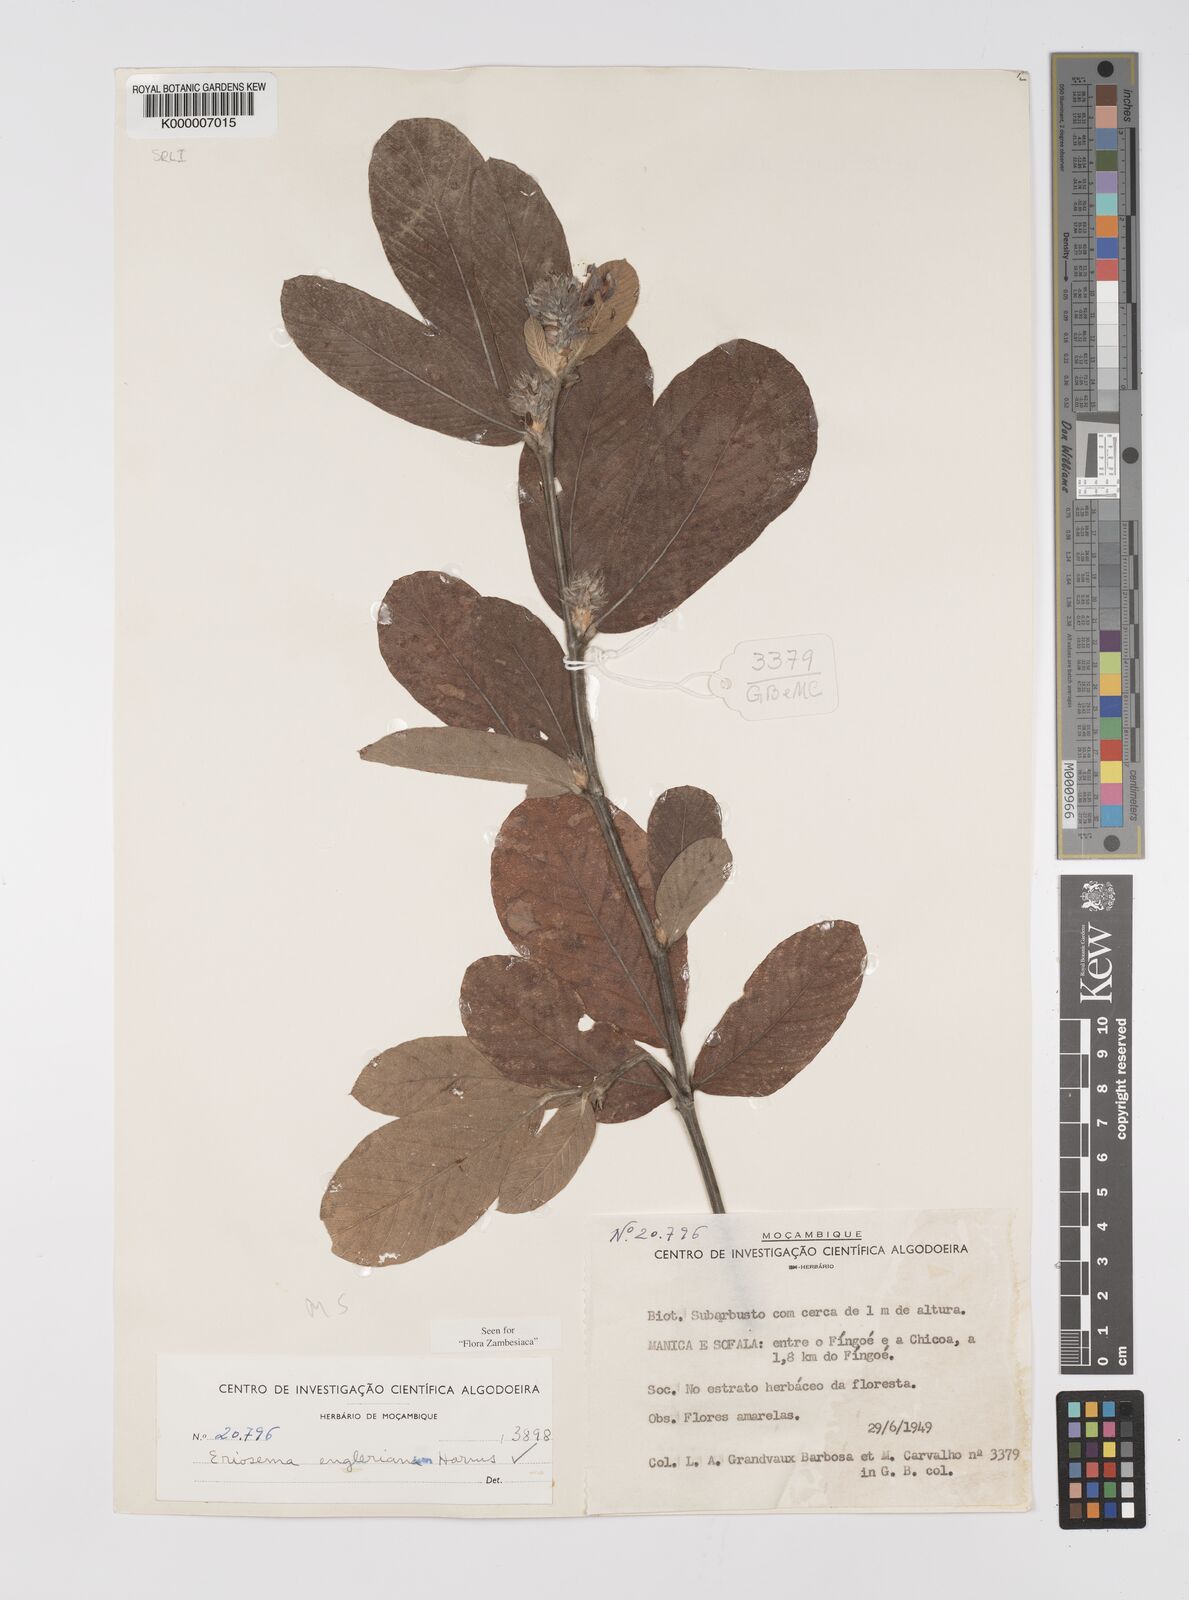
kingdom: Plantae
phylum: Tracheophyta
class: Magnoliopsida
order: Fabales
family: Fabaceae
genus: Eriosema
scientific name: Eriosema englerianum
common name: Blue bush
